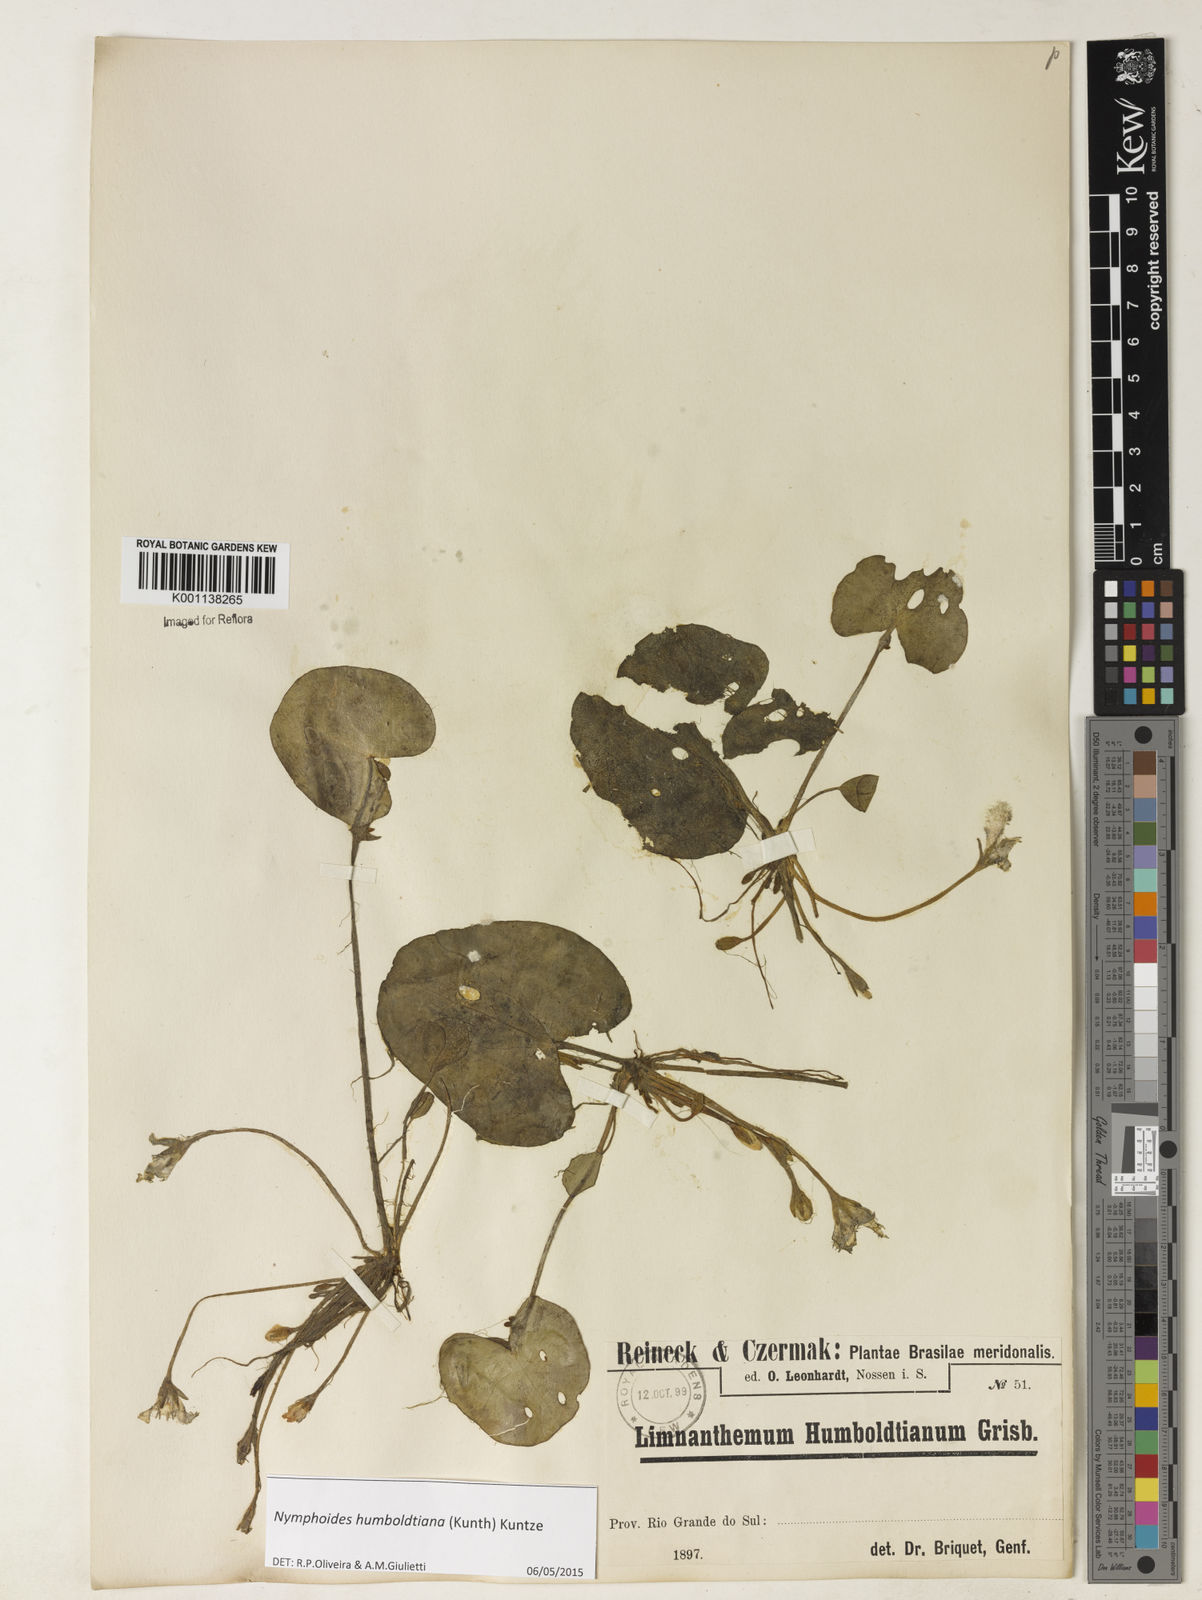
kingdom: Plantae
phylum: Tracheophyta
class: Magnoliopsida
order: Asterales
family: Menyanthaceae
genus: Nymphoides
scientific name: Nymphoides humboldtiana
